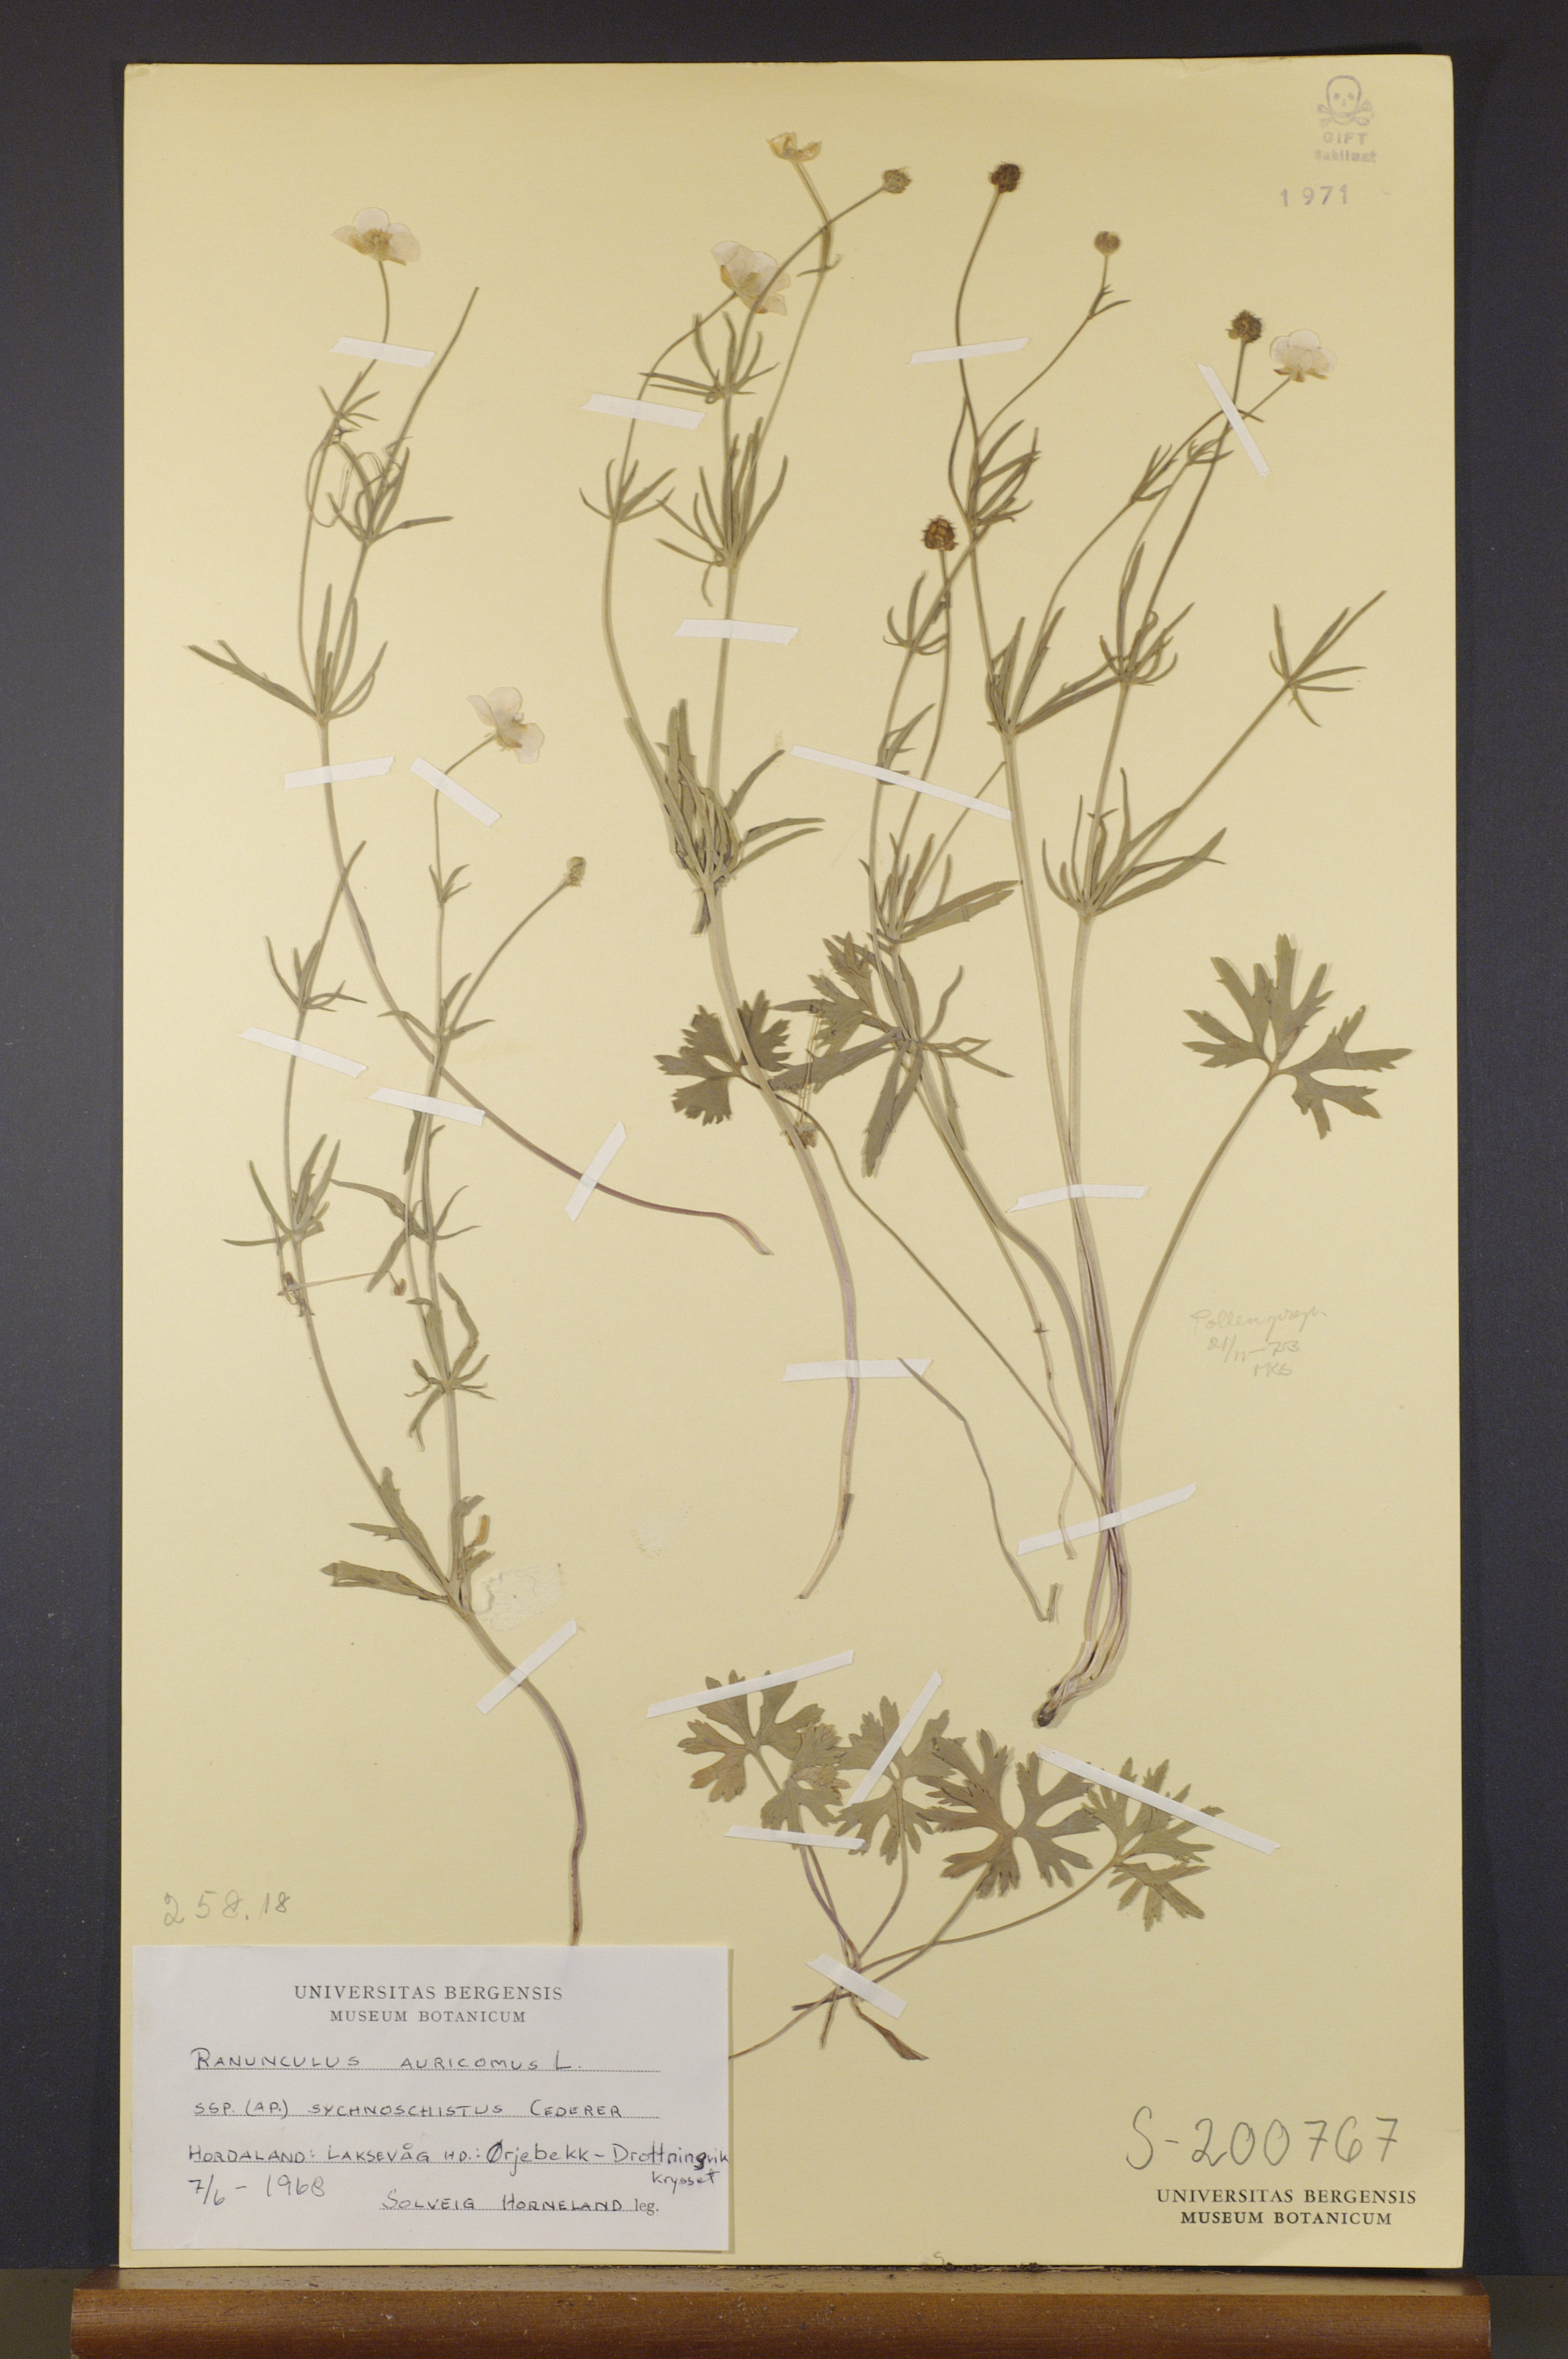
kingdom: Plantae
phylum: Tracheophyta
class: Magnoliopsida
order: Ranunculales
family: Ranunculaceae
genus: Ranunculus
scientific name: Ranunculus sychnoschistus
